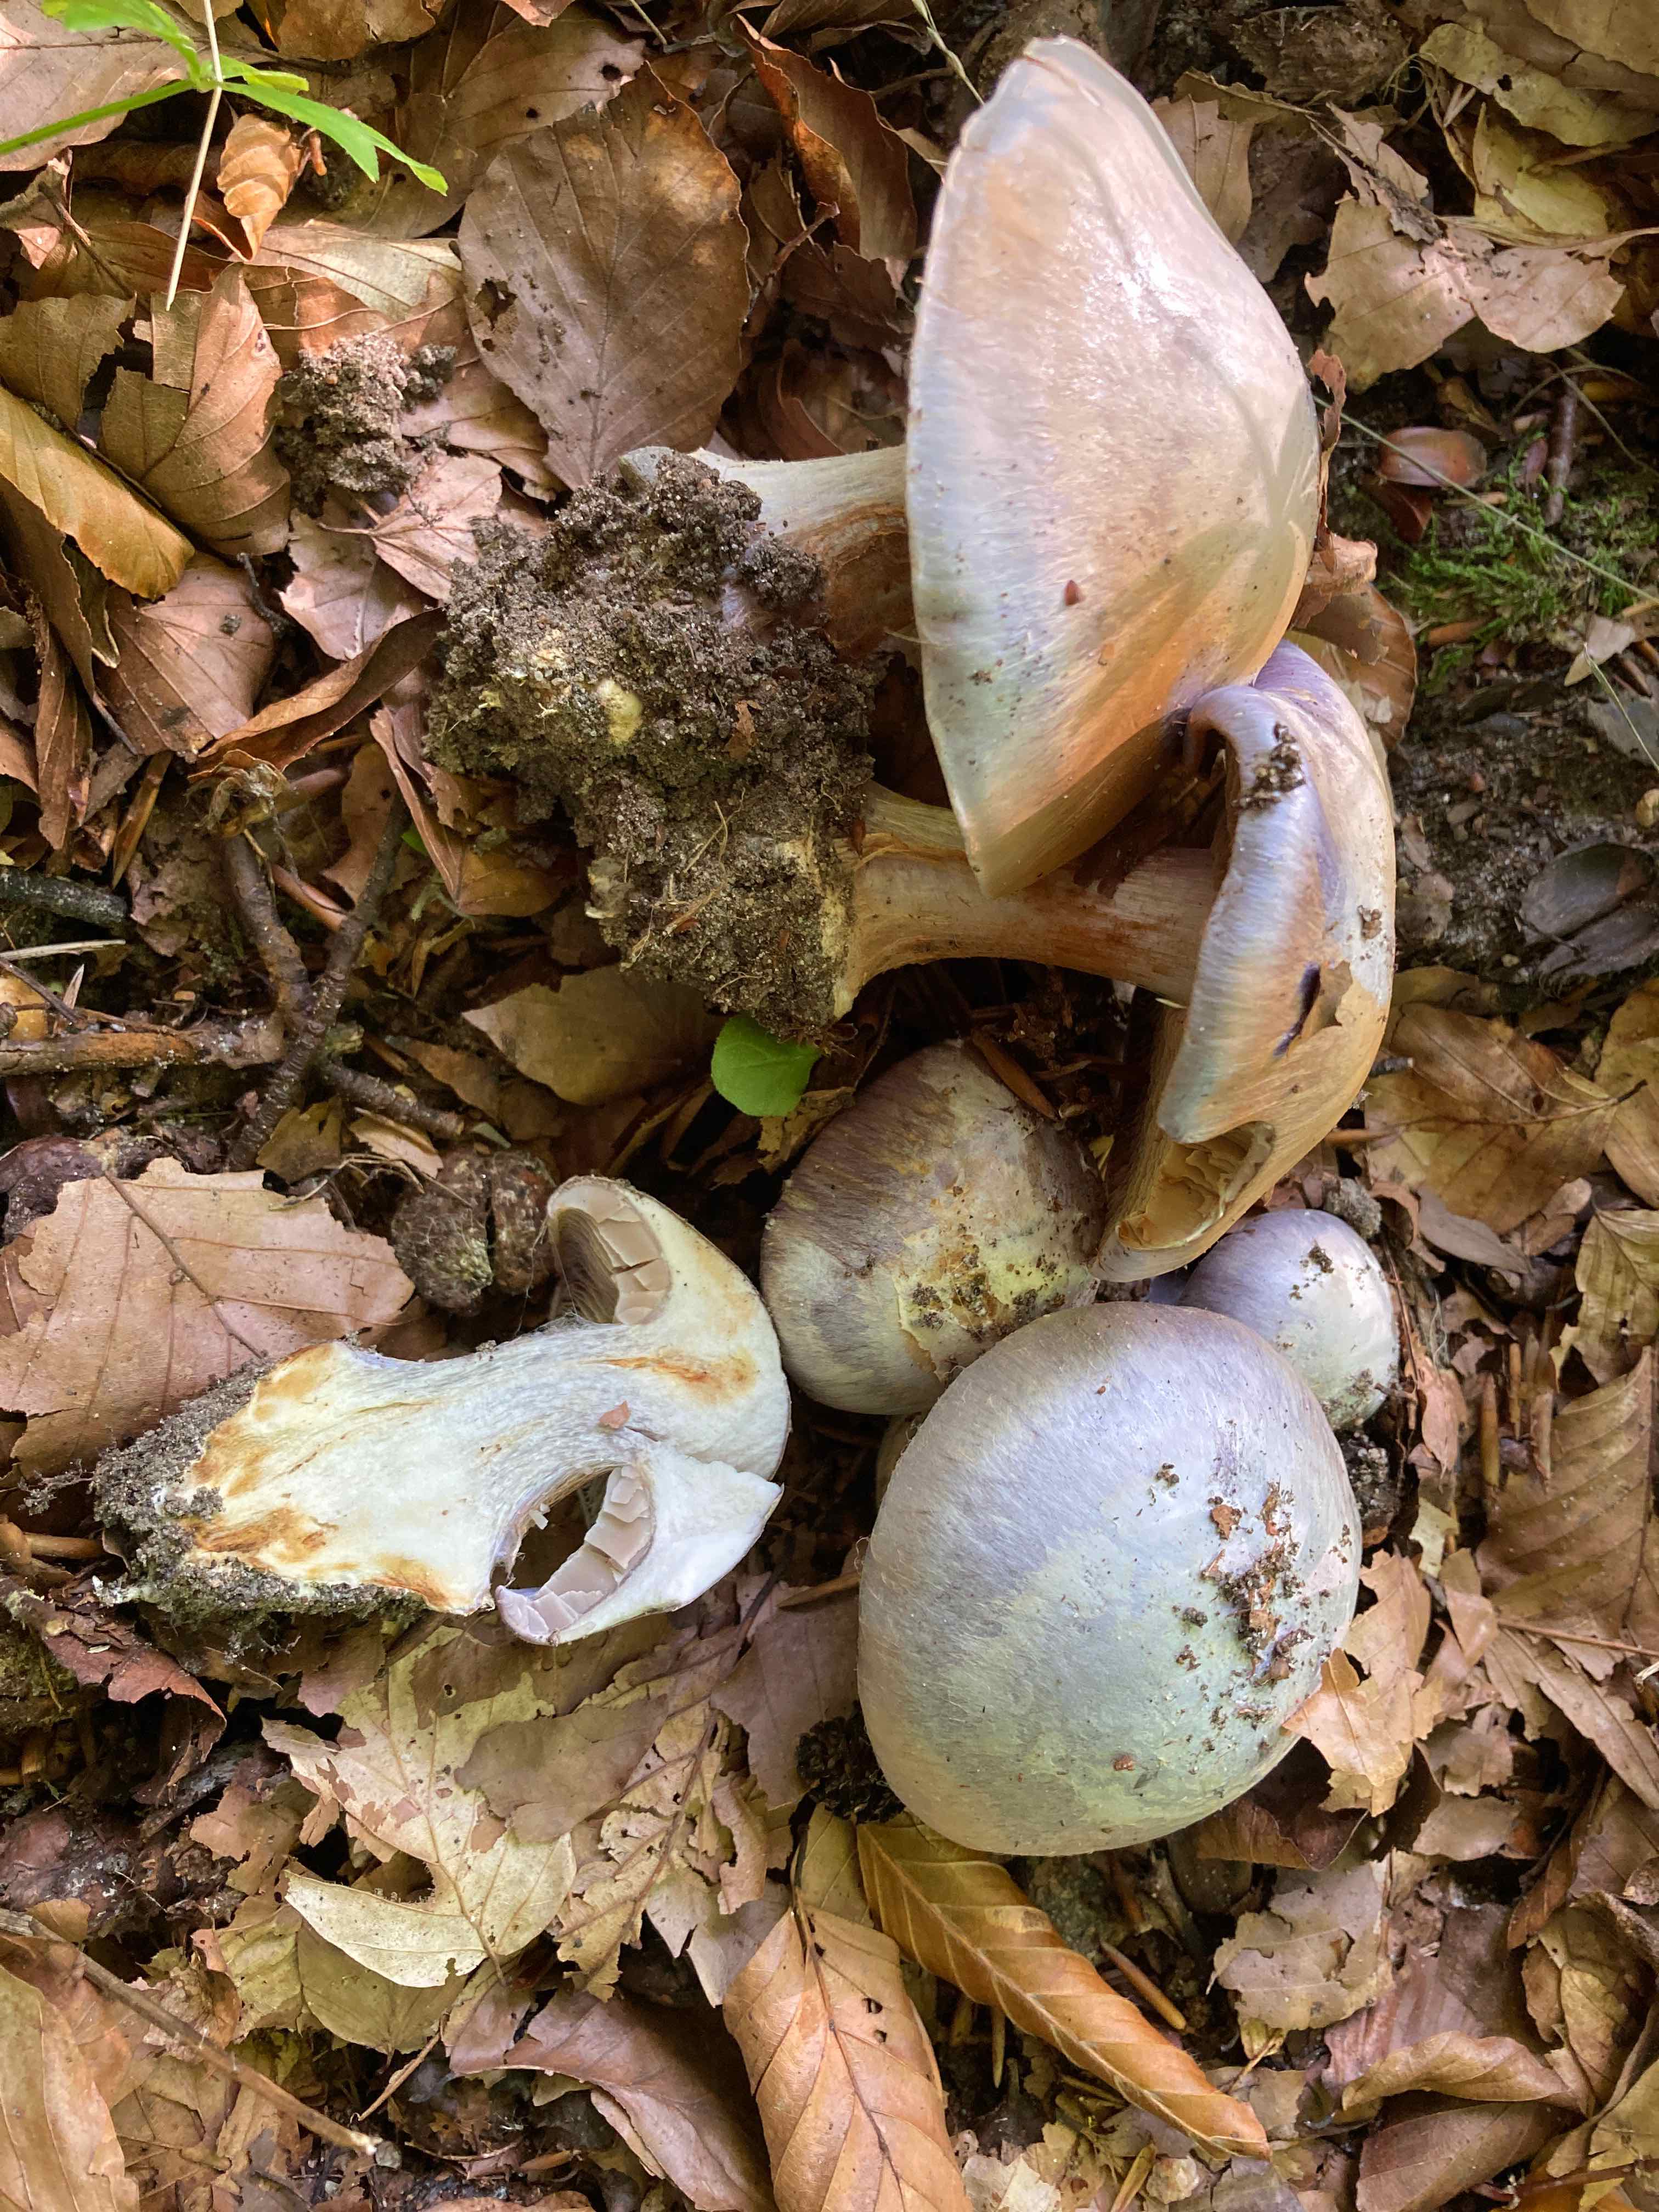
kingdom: Fungi
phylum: Basidiomycota
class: Agaricomycetes
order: Agaricales
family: Cortinariaceae
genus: Cortinarius
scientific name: Cortinarius caerulescens
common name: blåkødet slørhat
